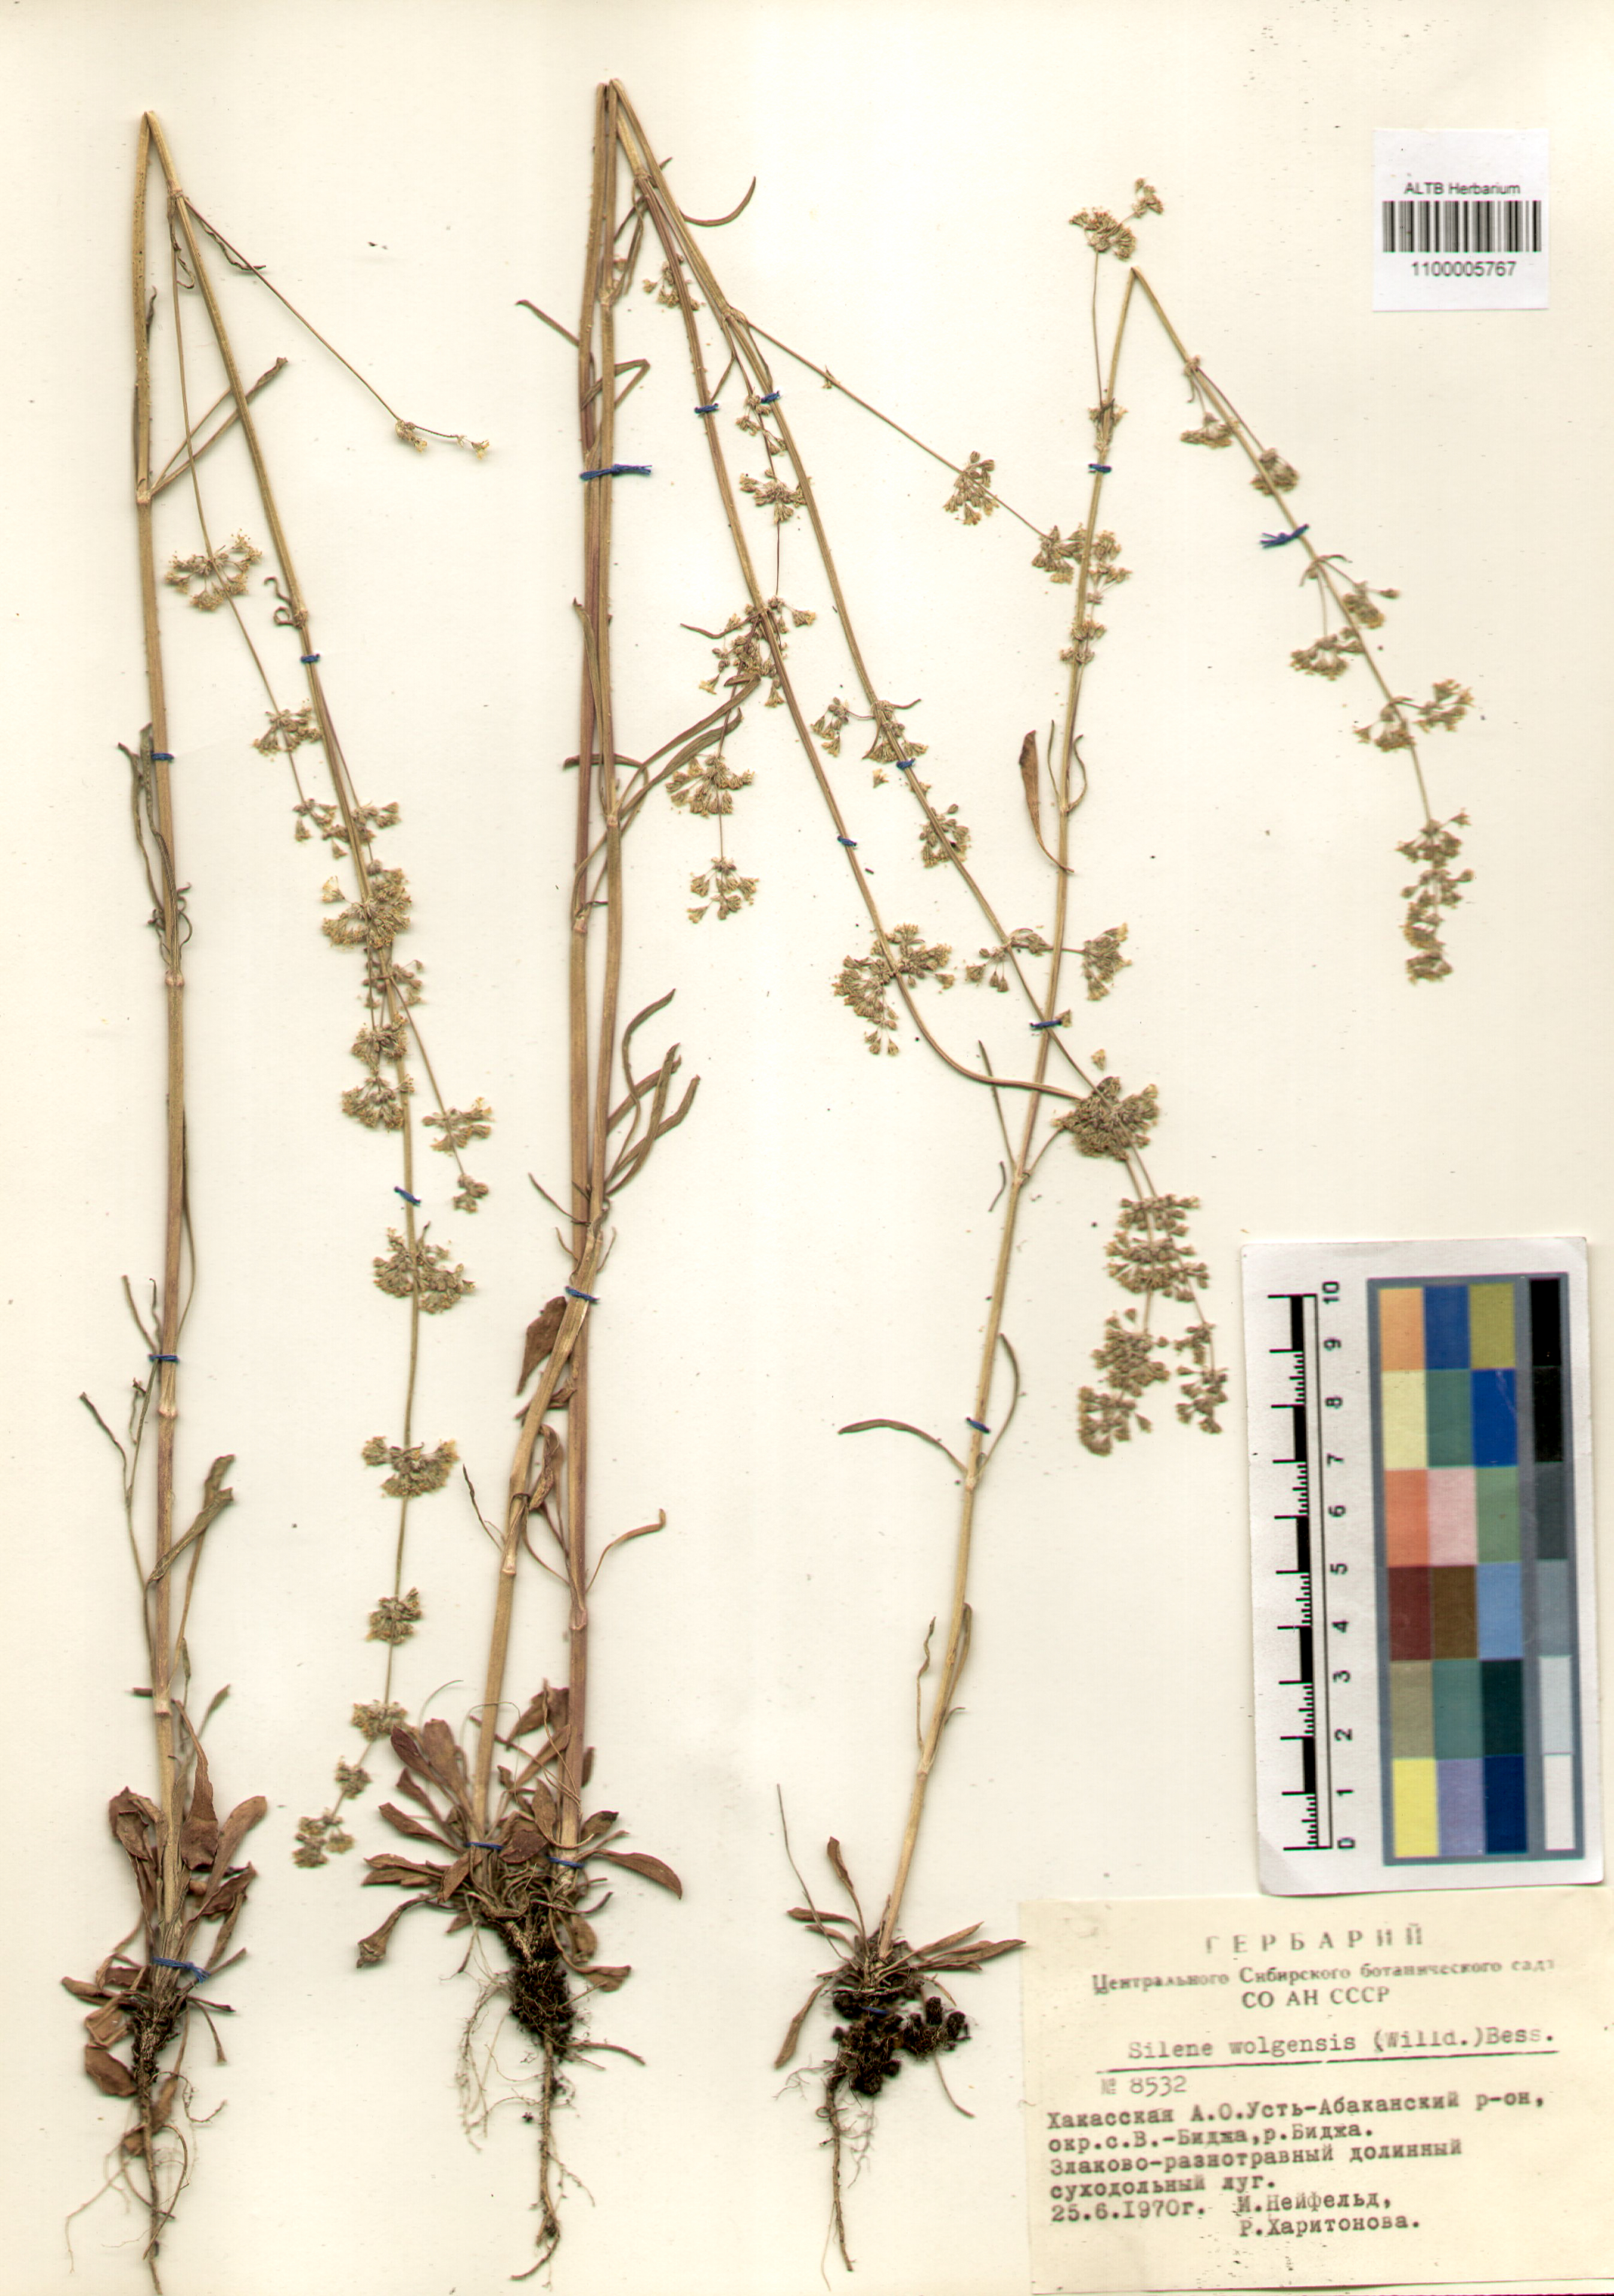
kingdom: Plantae
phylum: Tracheophyta
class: Magnoliopsida
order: Caryophyllales
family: Caryophyllaceae
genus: Silene
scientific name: Silene wolgensis
